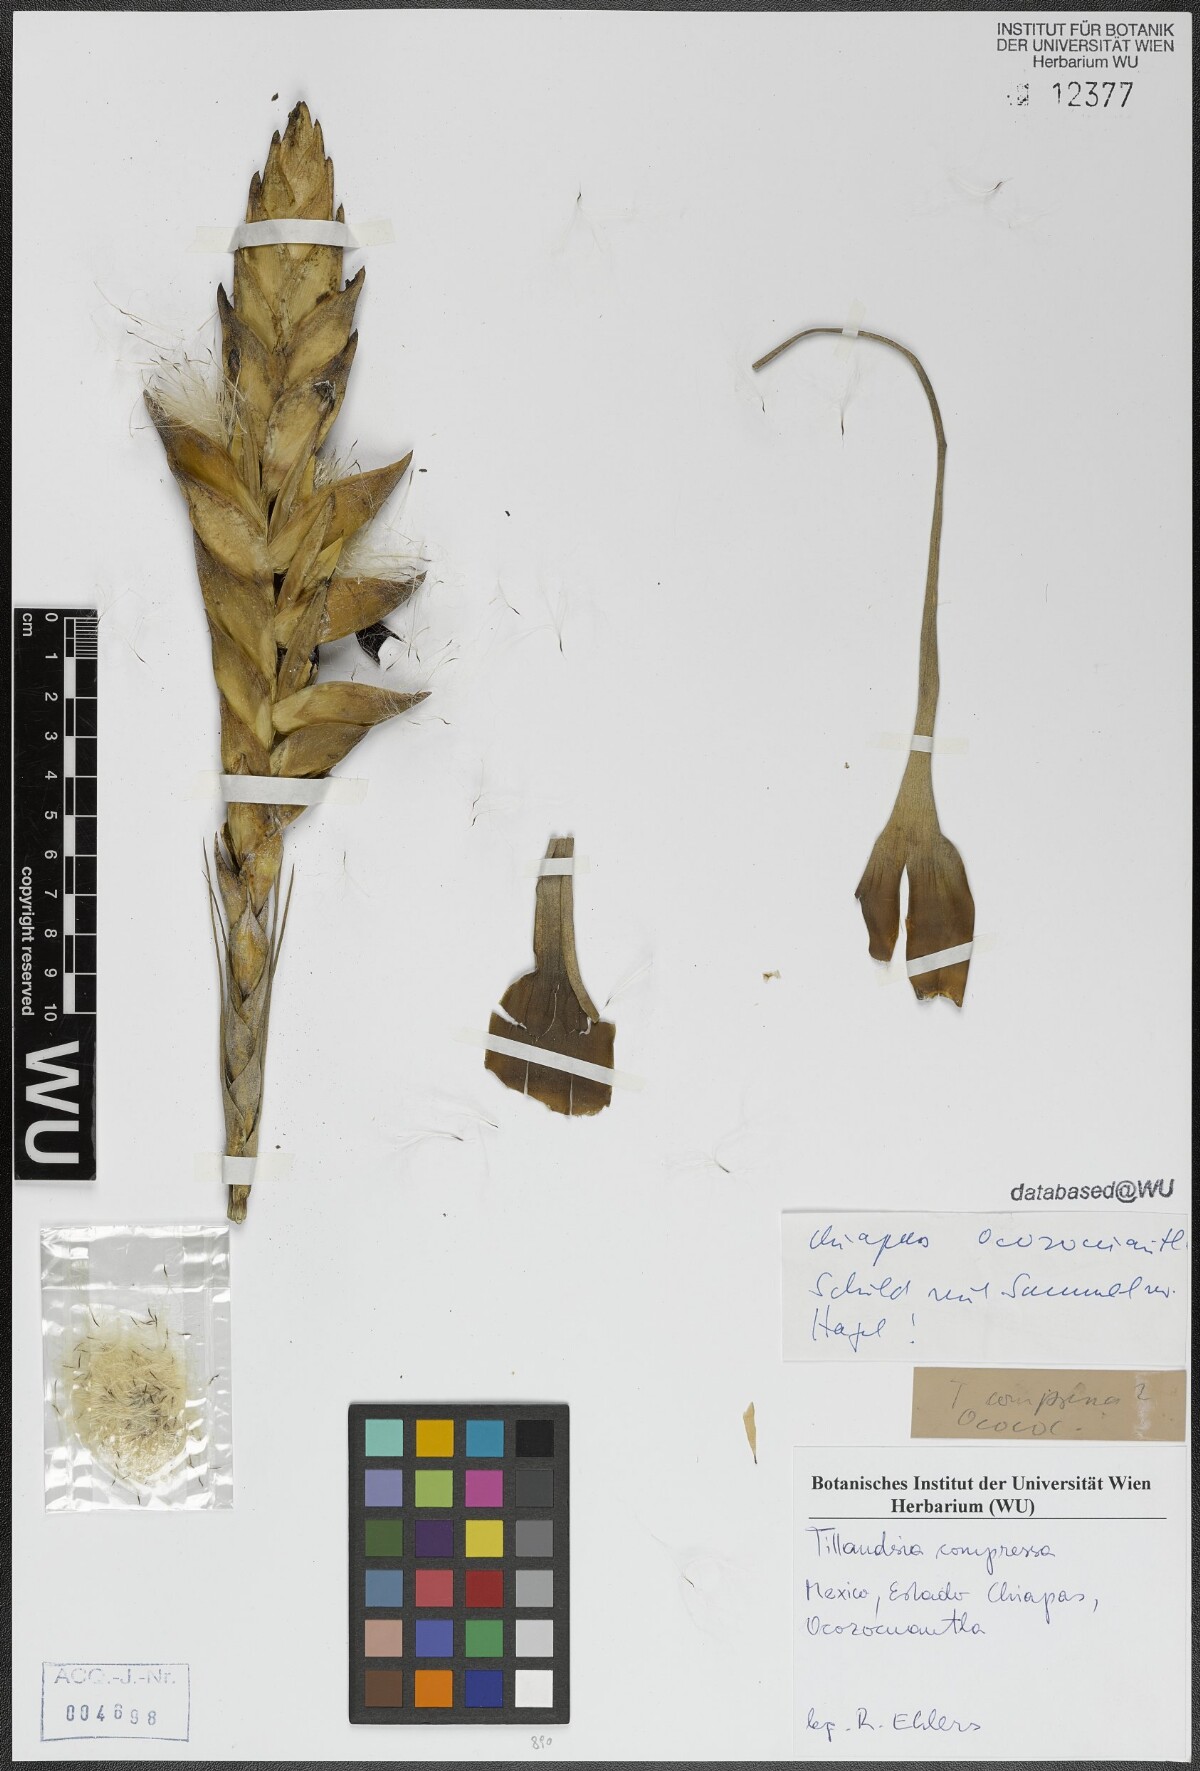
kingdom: Plantae
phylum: Tracheophyta
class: Liliopsida
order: Poales
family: Bromeliaceae
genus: Tillandsia
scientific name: Tillandsia compressa
